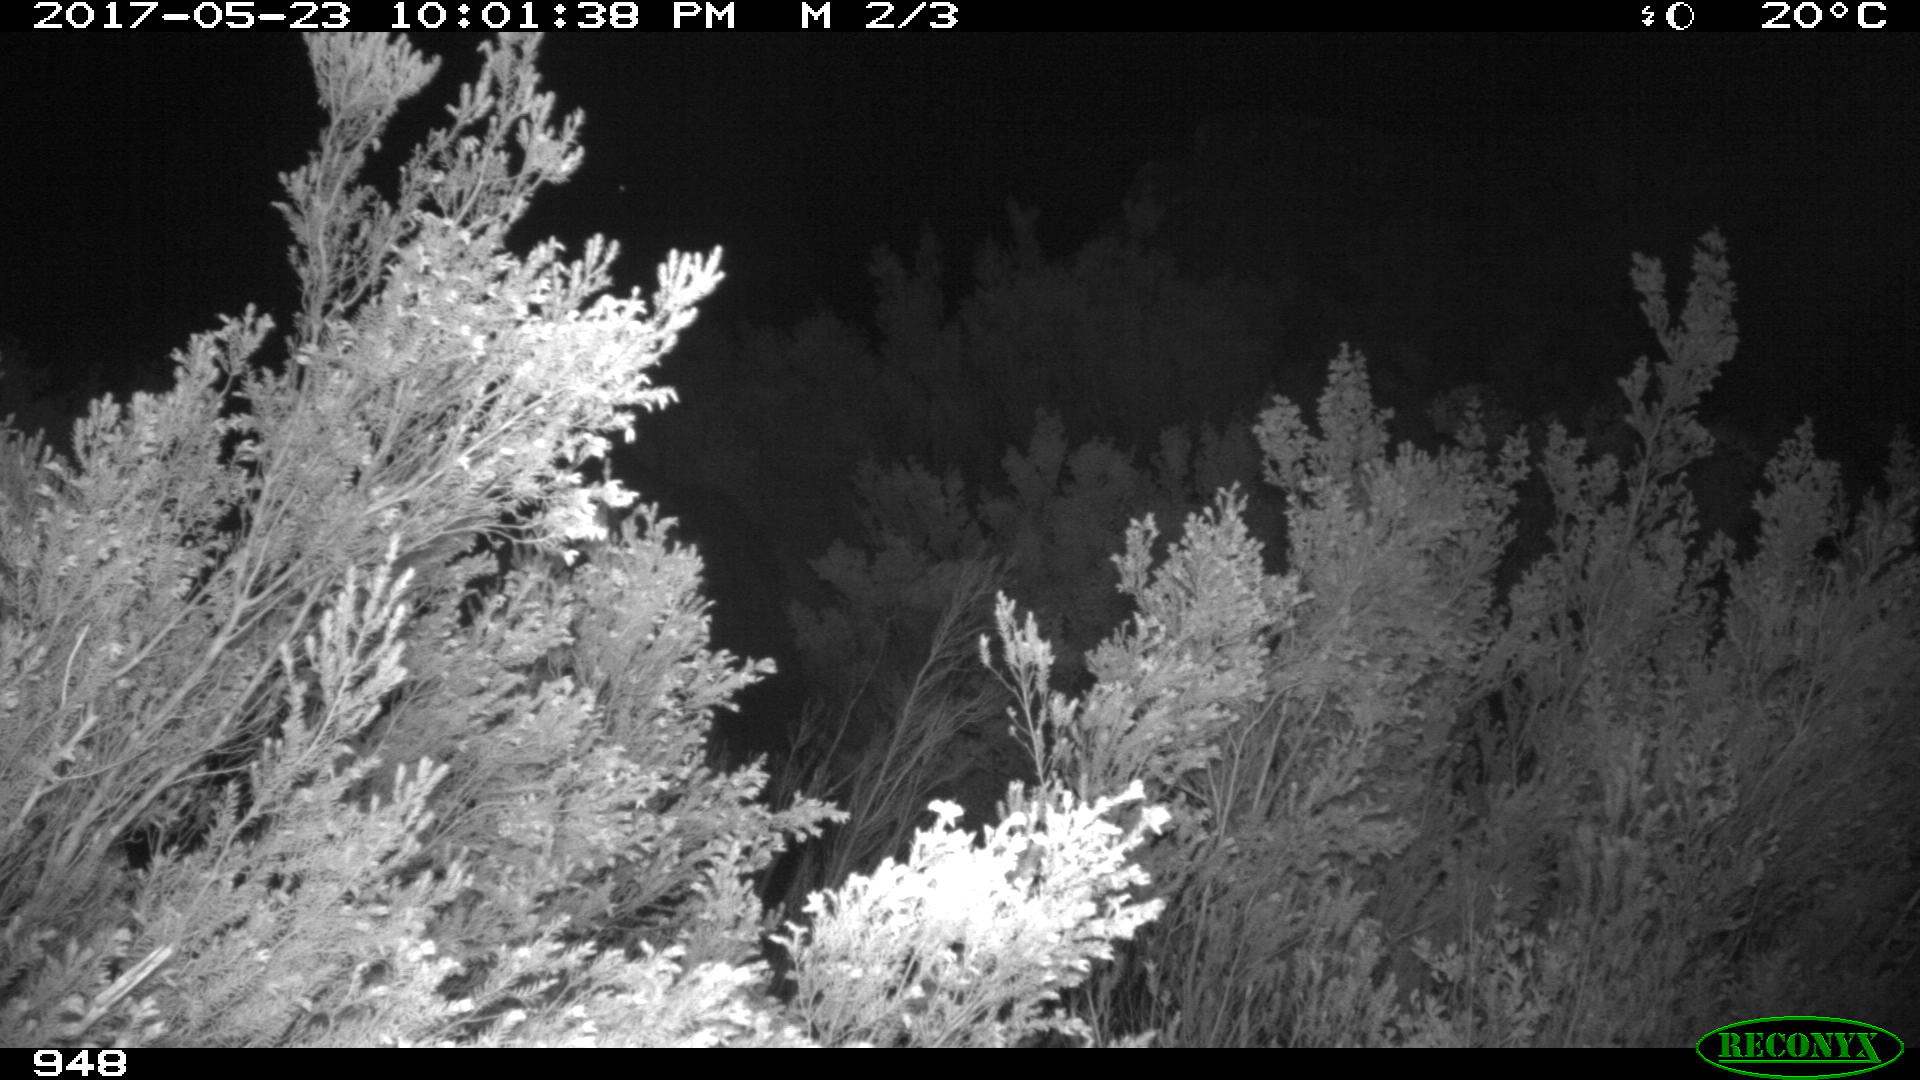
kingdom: Animalia
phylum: Chordata
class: Mammalia
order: Perissodactyla
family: Equidae
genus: Equus
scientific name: Equus caballus
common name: Horse
